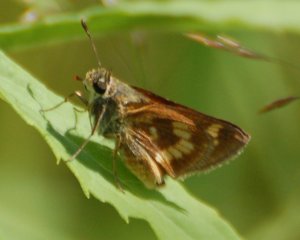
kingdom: Animalia
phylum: Arthropoda
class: Insecta
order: Lepidoptera
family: Hesperiidae
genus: Polites
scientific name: Polites
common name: Long Dash Skipper
